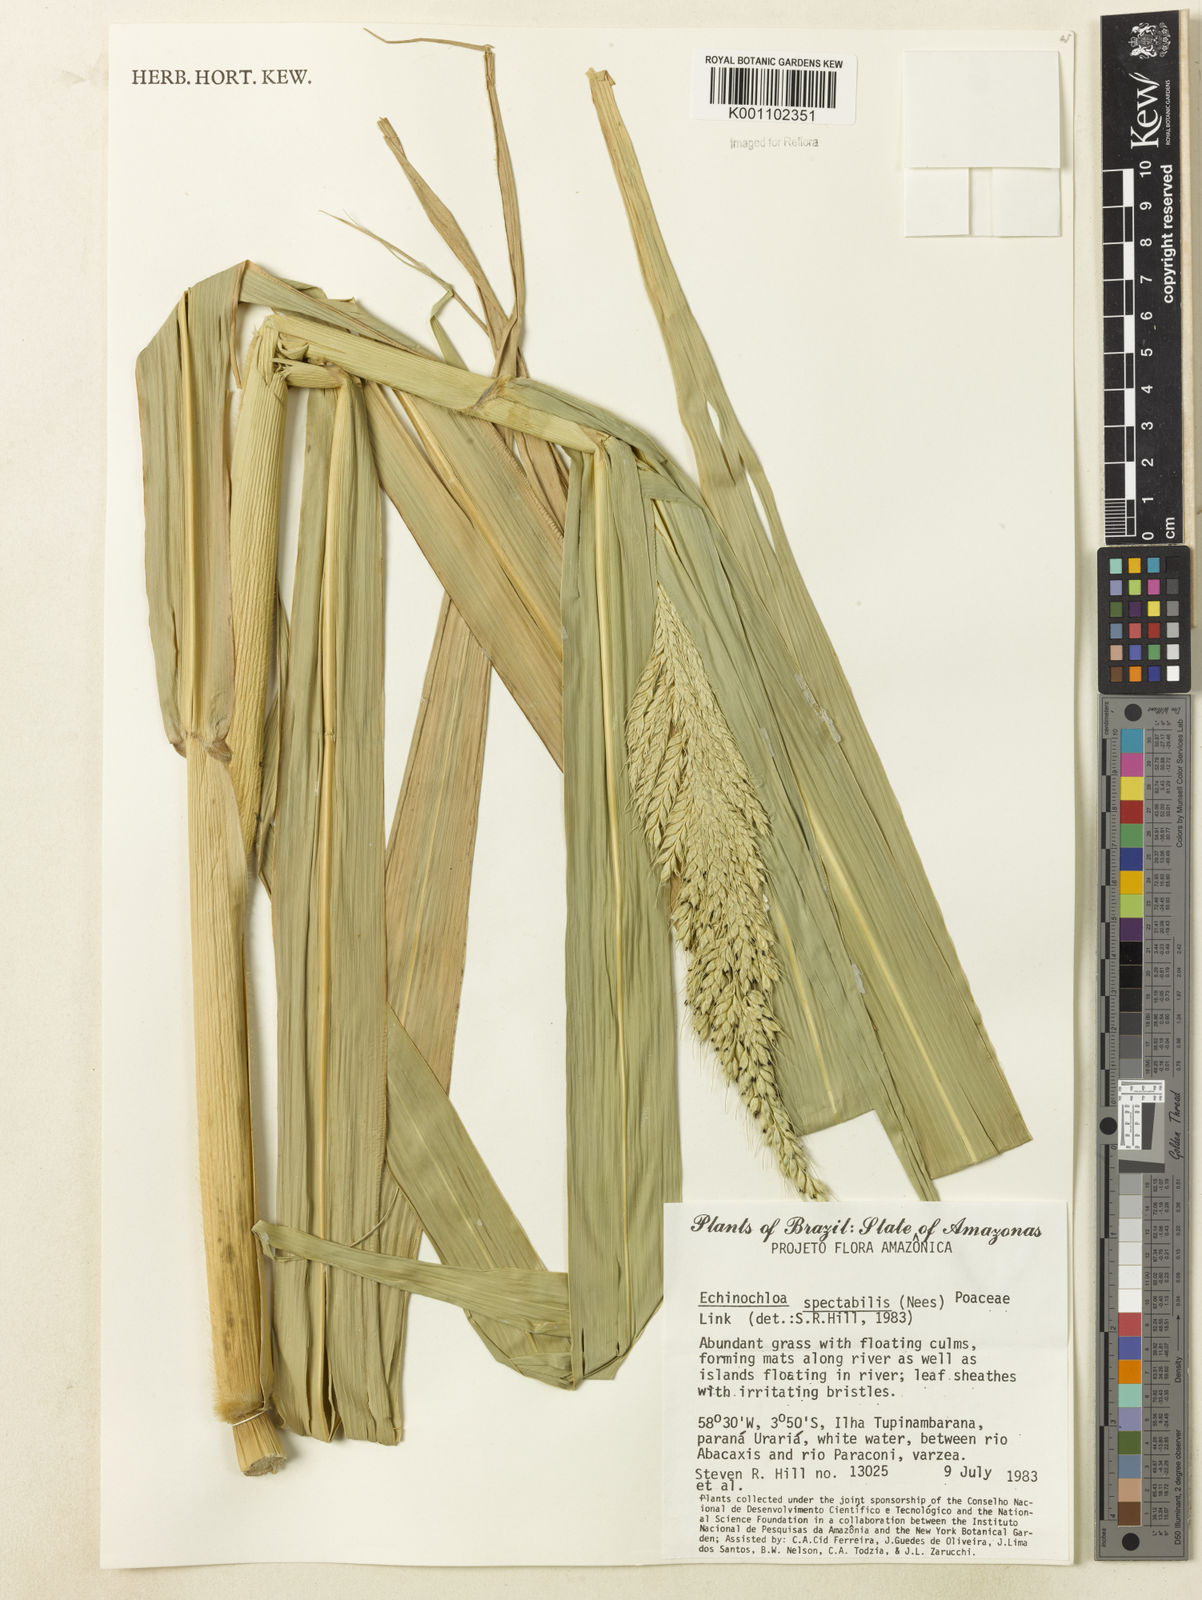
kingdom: Plantae
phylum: Tracheophyta
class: Liliopsida
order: Poales
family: Poaceae
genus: Echinochloa
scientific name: Echinochloa polystachya
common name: Creeping river grass
